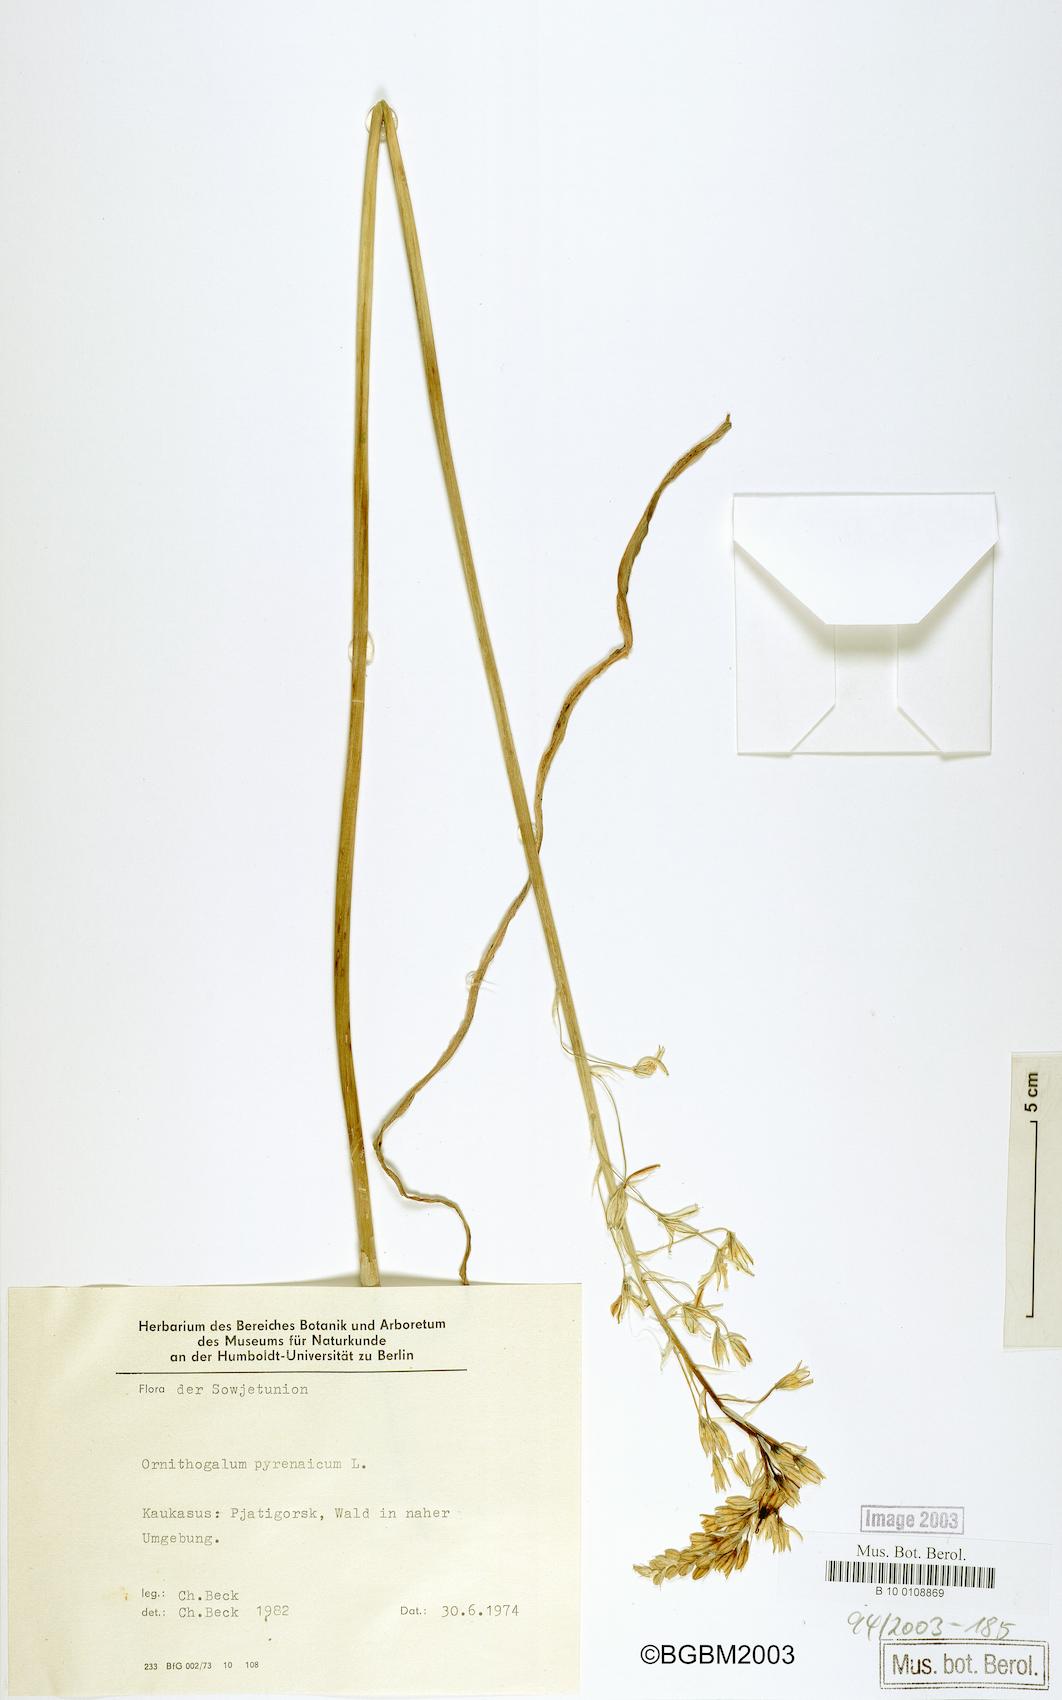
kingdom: Plantae
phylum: Tracheophyta
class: Liliopsida
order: Asparagales
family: Asparagaceae
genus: Ornithogalum
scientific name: Ornithogalum pyrenaicum
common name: Spiked star-of-bethlehem
